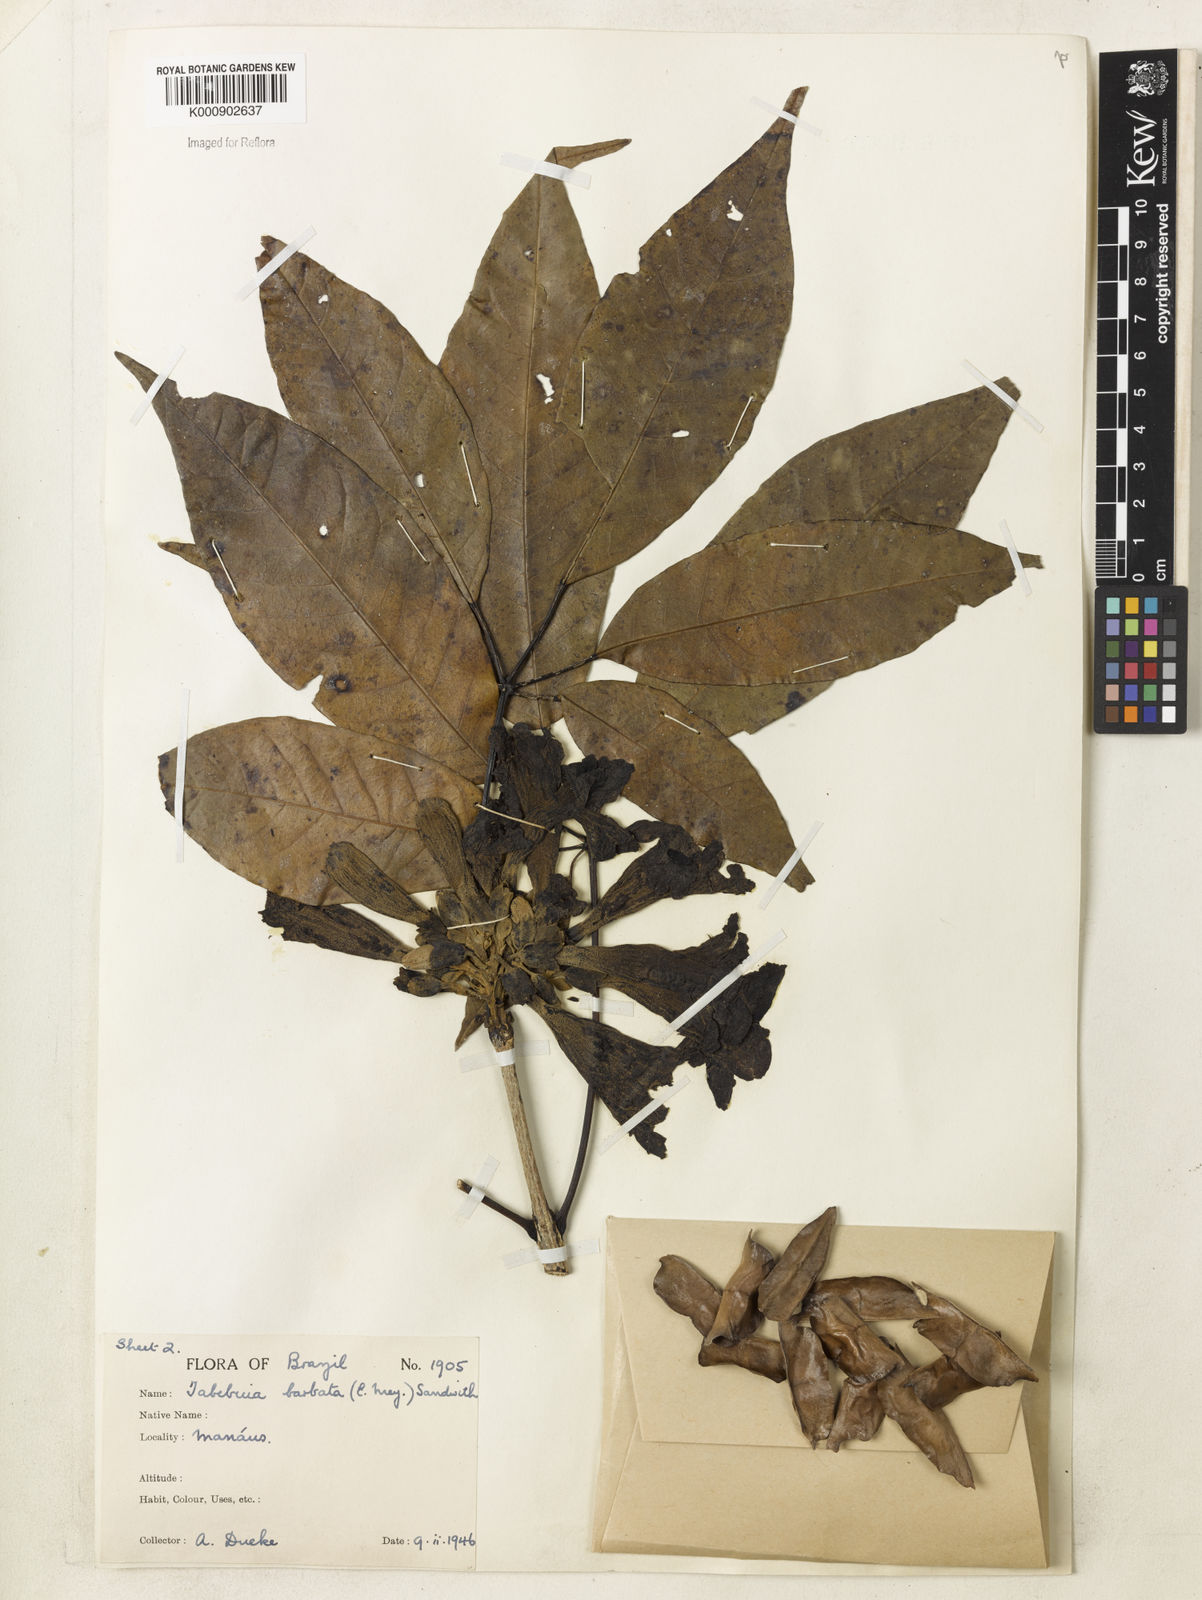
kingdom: Plantae
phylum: Tracheophyta
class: Magnoliopsida
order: Lamiales
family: Bignoniaceae
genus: Handroanthus
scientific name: Handroanthus barbatus
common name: Trumpet trees
